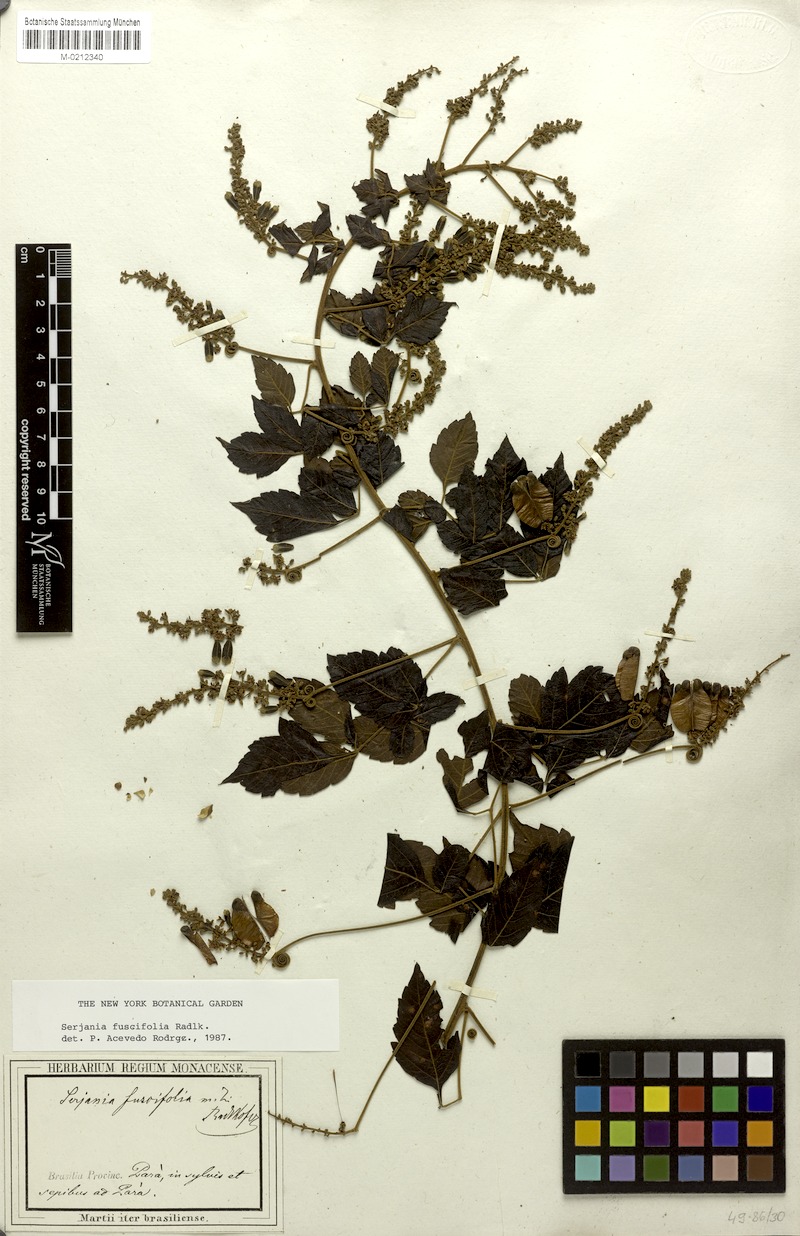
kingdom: Plantae
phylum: Tracheophyta
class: Magnoliopsida
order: Sapindales
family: Sapindaceae
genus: Serjania
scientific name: Serjania fuscifolia
